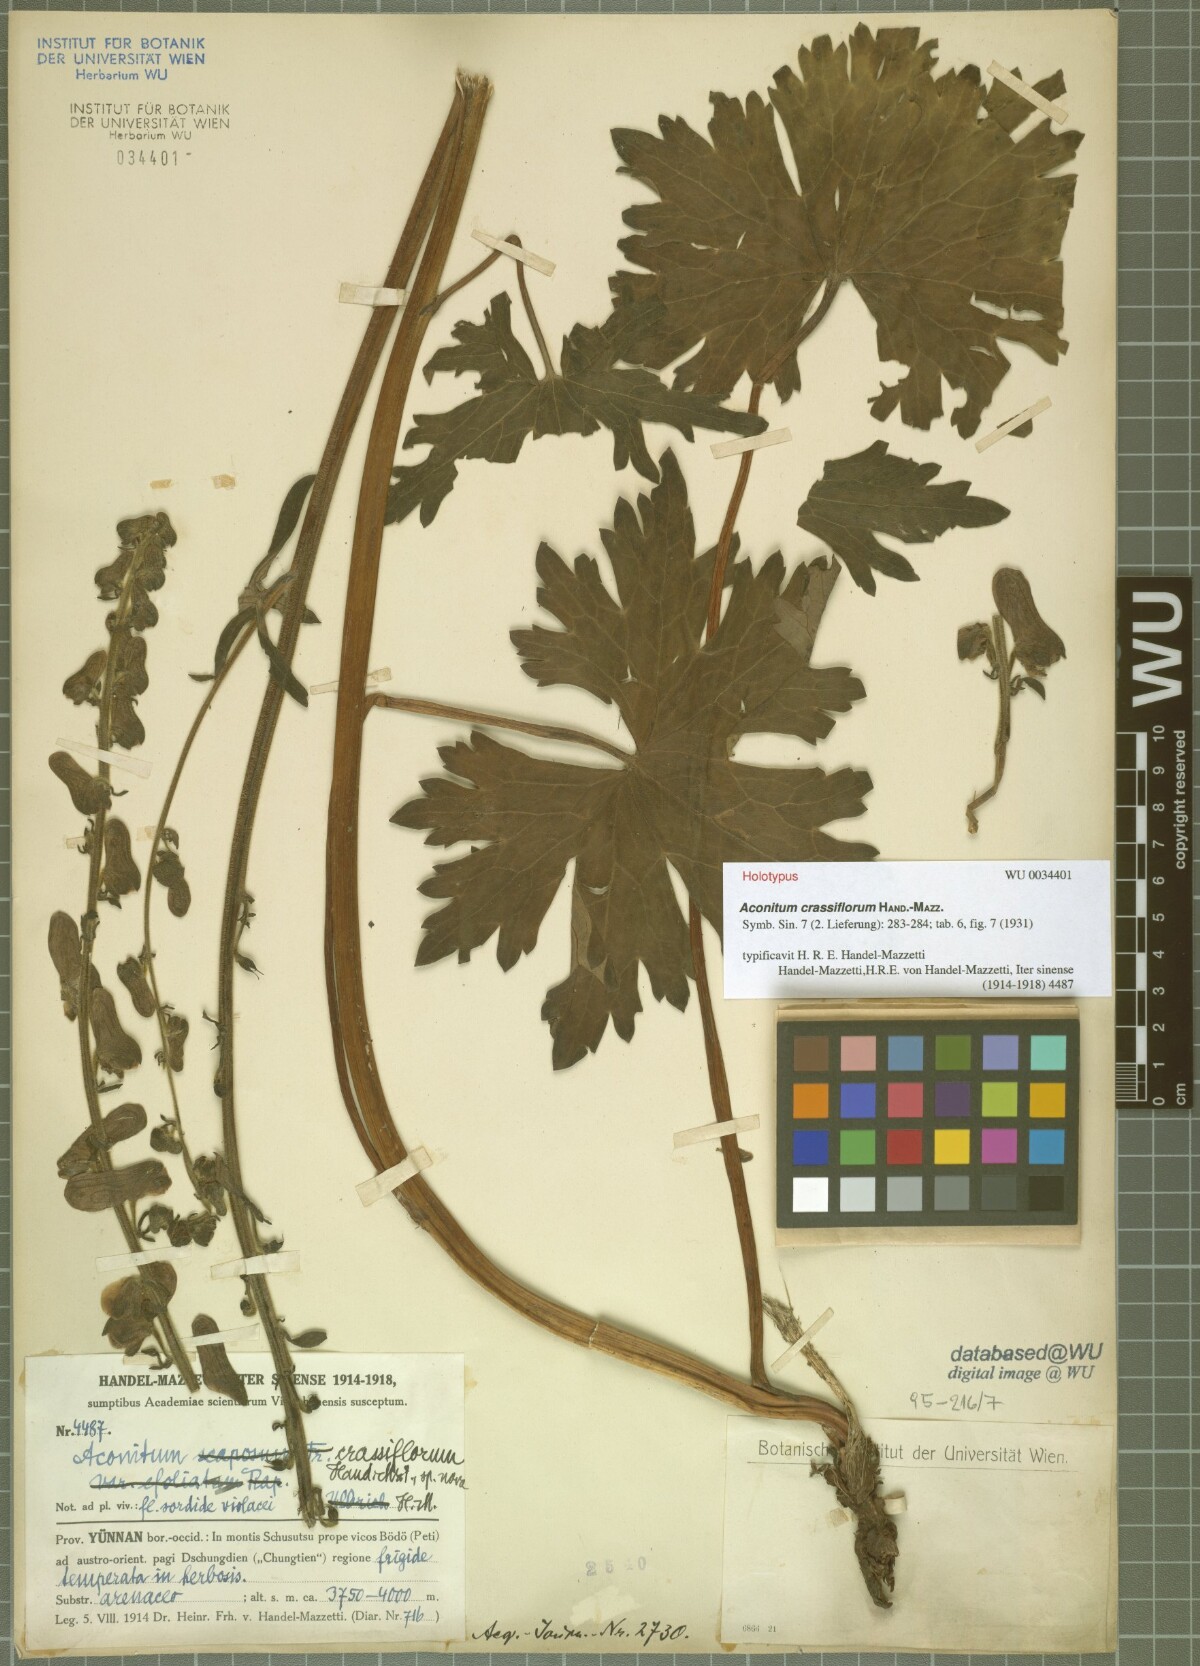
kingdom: Plantae
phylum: Tracheophyta
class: Magnoliopsida
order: Ranunculales
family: Ranunculaceae
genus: Aconitum
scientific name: Aconitum crassiflorum
